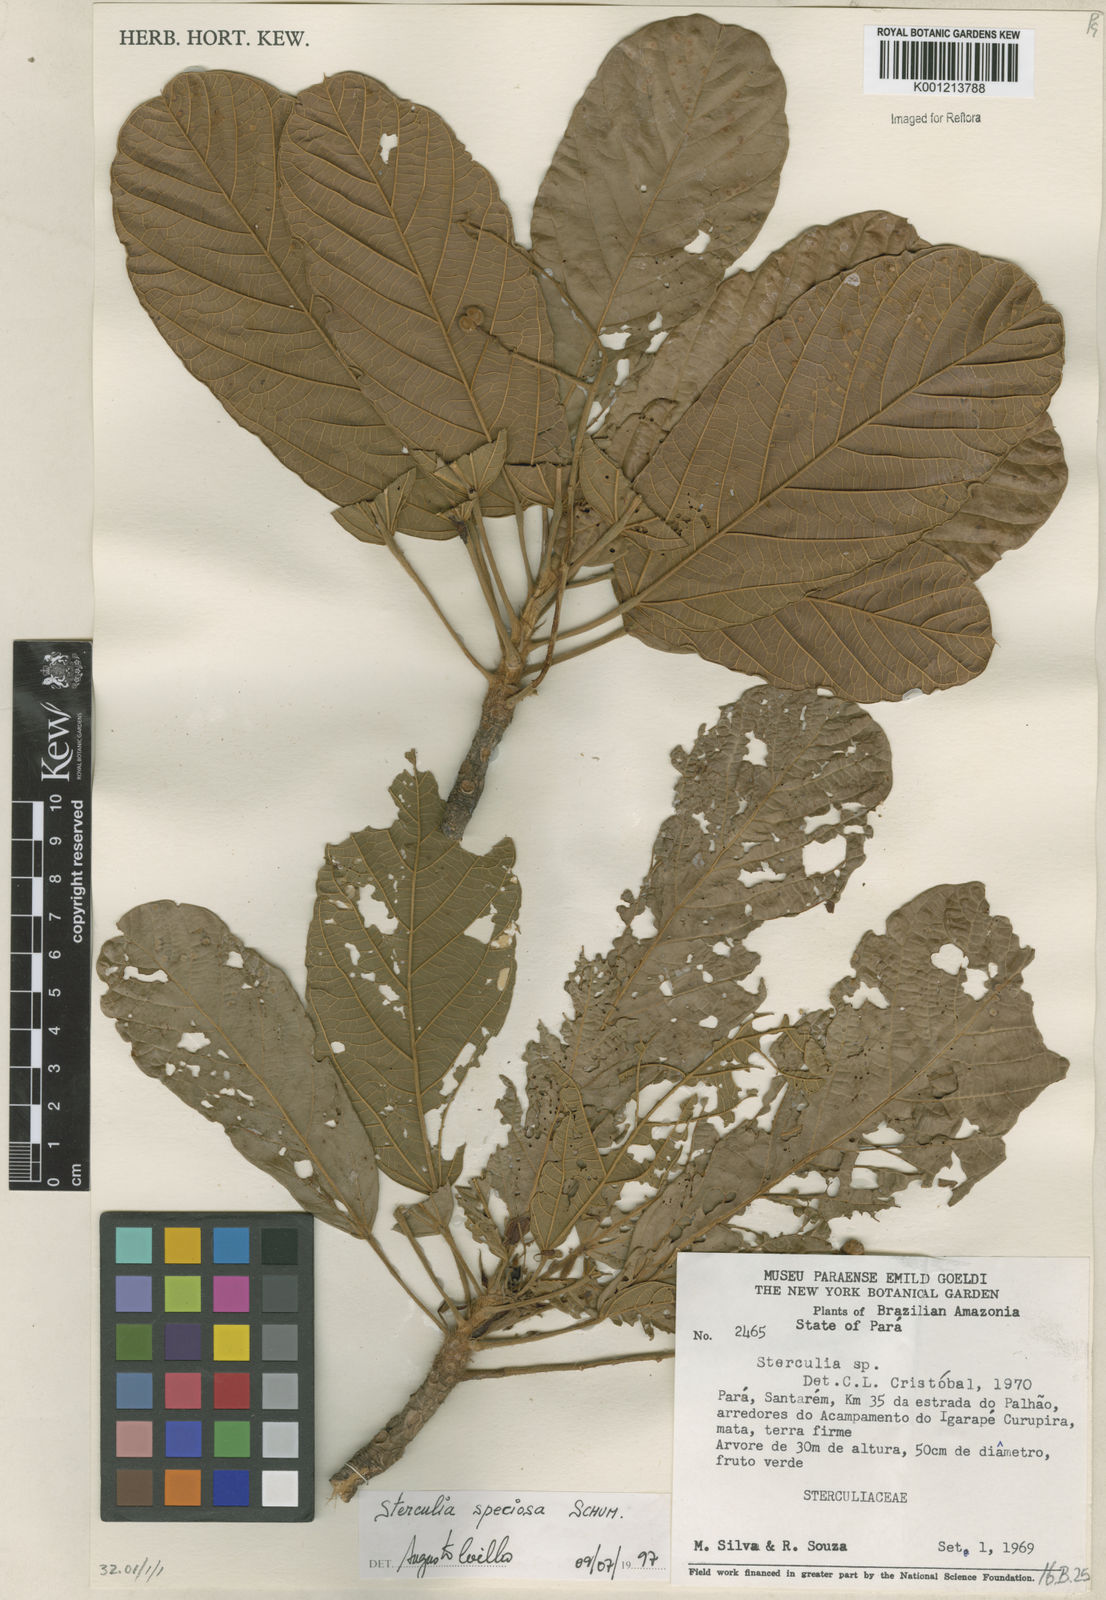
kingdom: Plantae
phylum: Tracheophyta
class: Magnoliopsida
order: Malvales
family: Malvaceae
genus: Sterculia
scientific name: Sterculia speciosa
